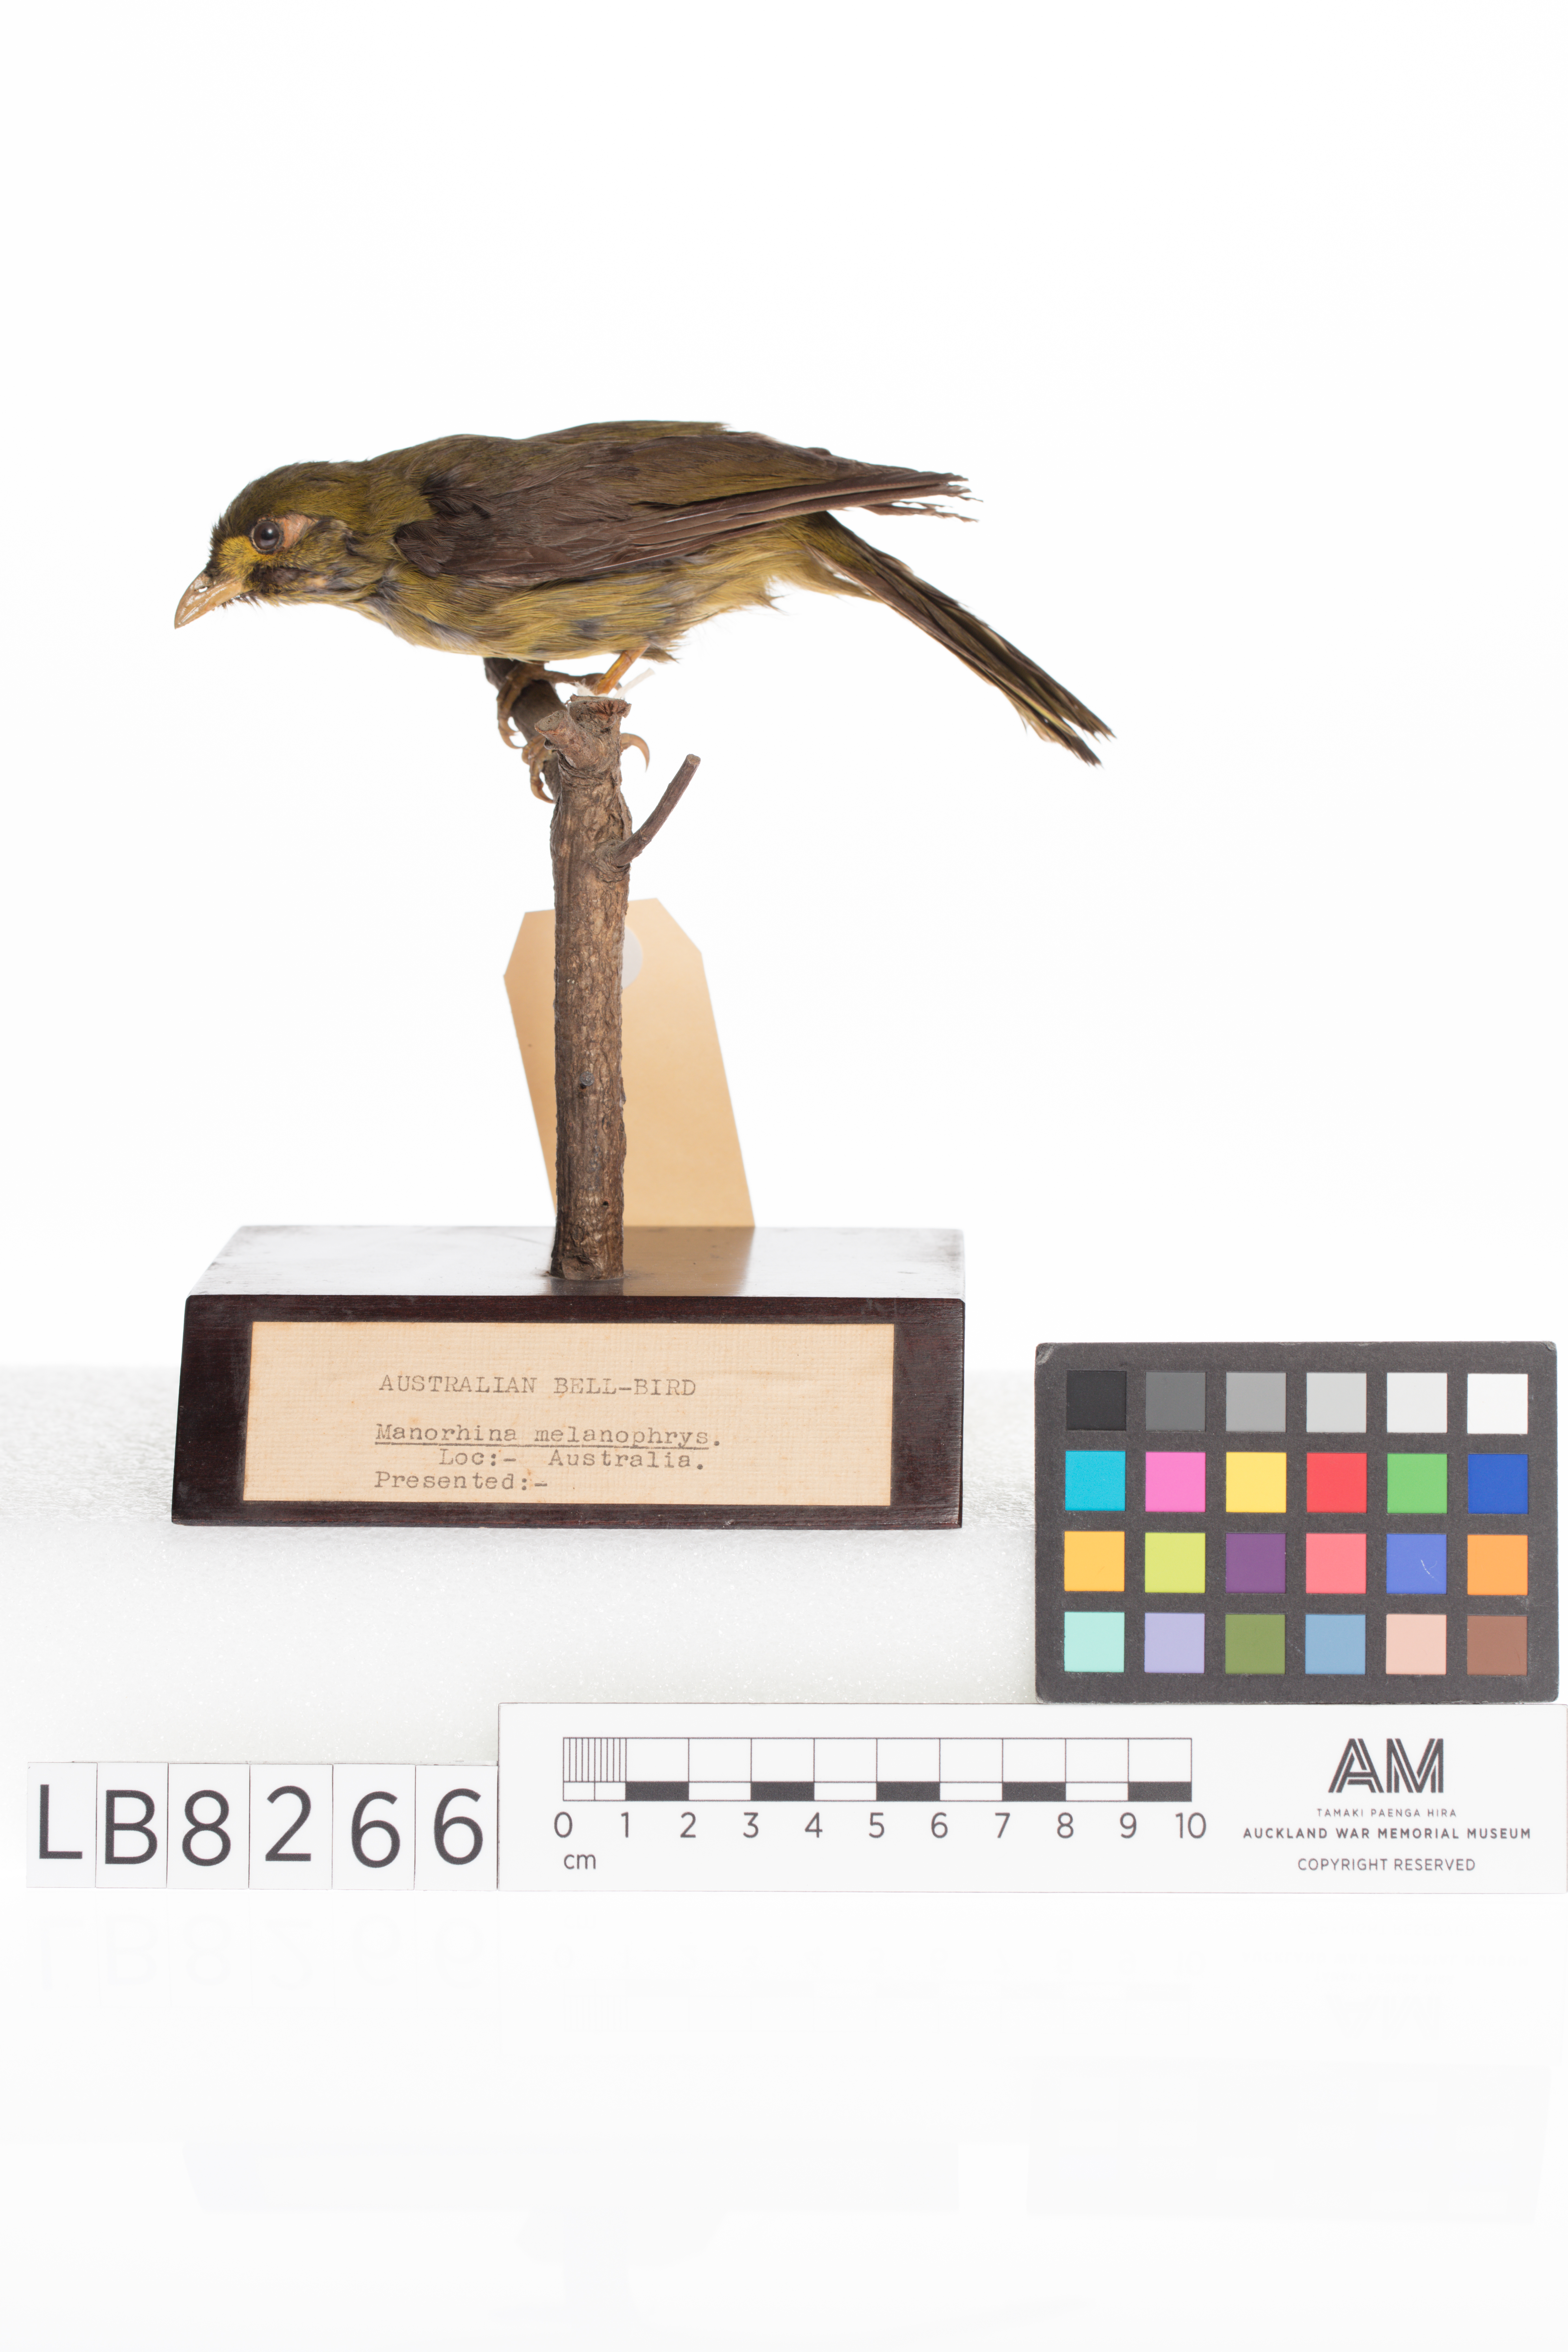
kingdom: Animalia
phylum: Chordata
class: Aves
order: Passeriformes
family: Meliphagidae
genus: Manorina
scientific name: Manorina melanophrys
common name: Bell miner
